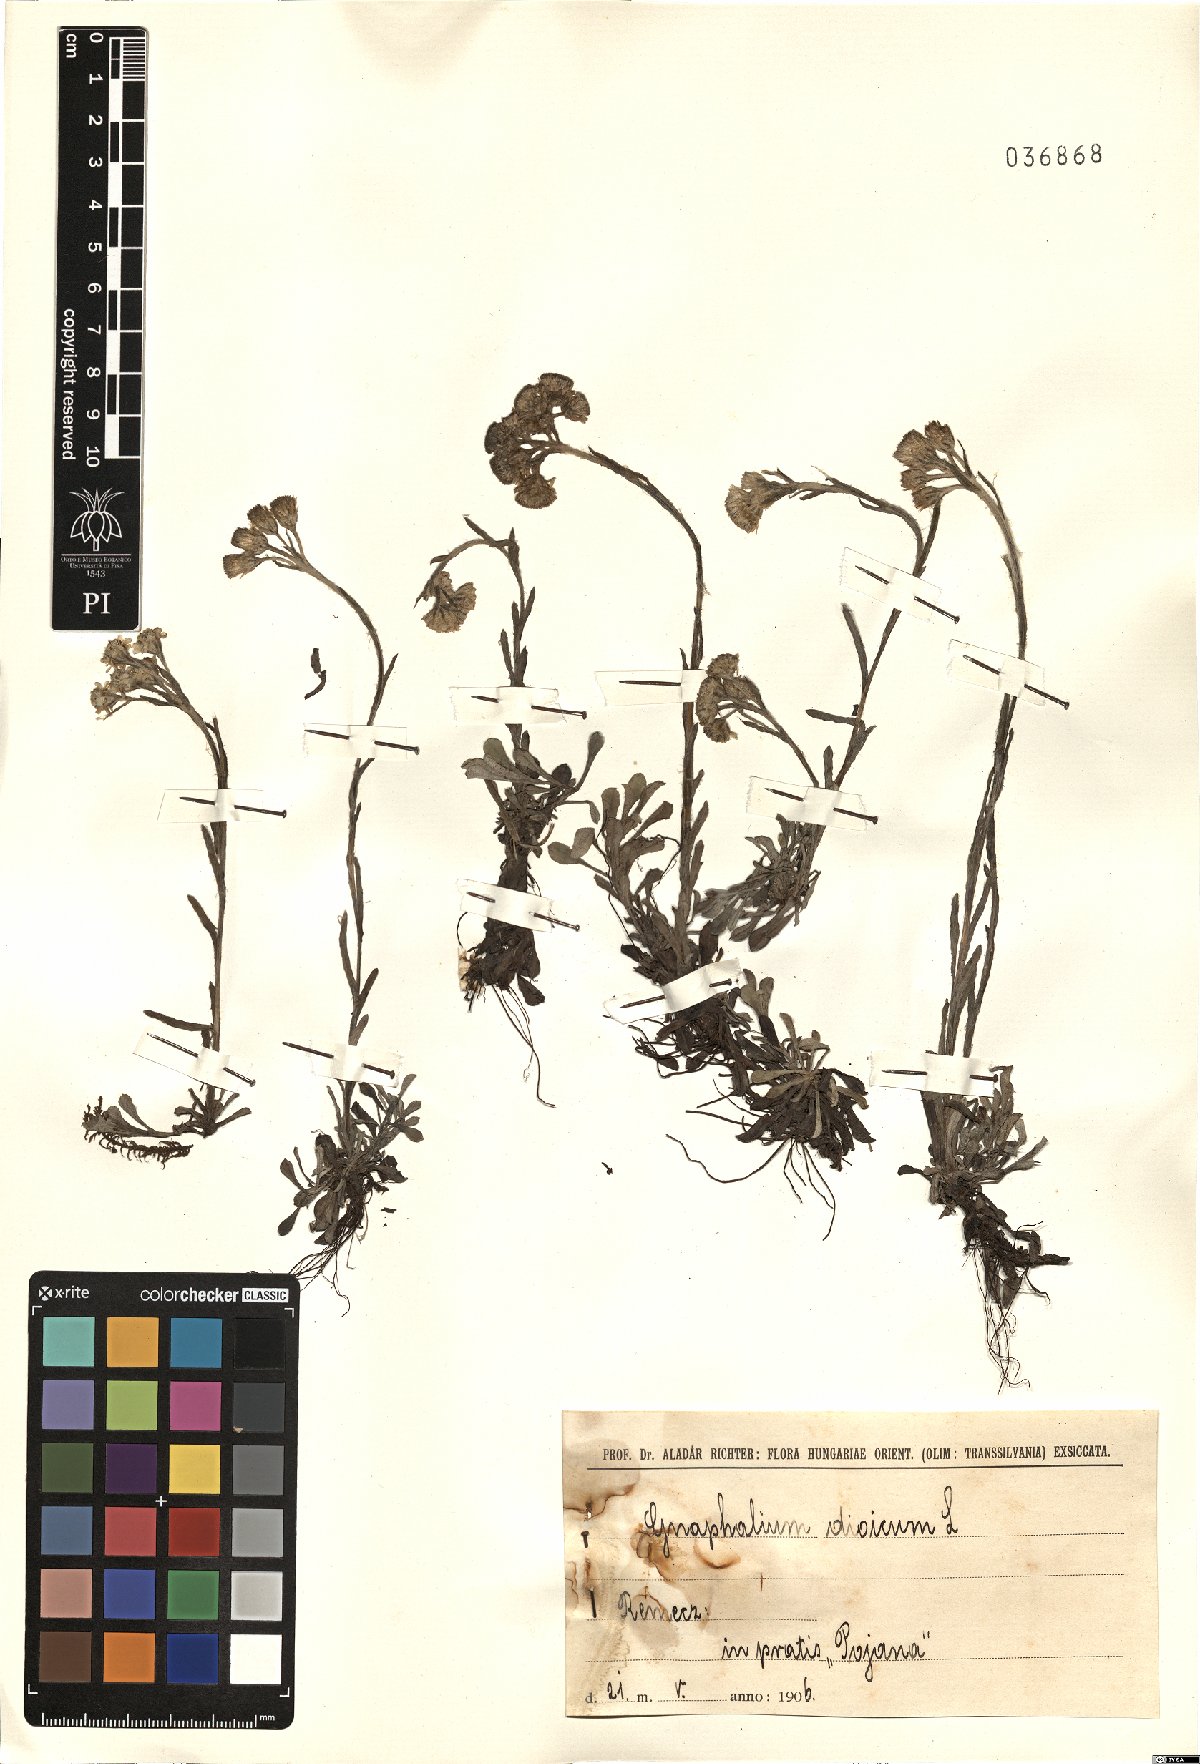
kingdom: Plantae
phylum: Tracheophyta
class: Magnoliopsida
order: Asterales
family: Asteraceae
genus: Antennaria
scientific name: Antennaria dioica
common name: Mountain everlasting
